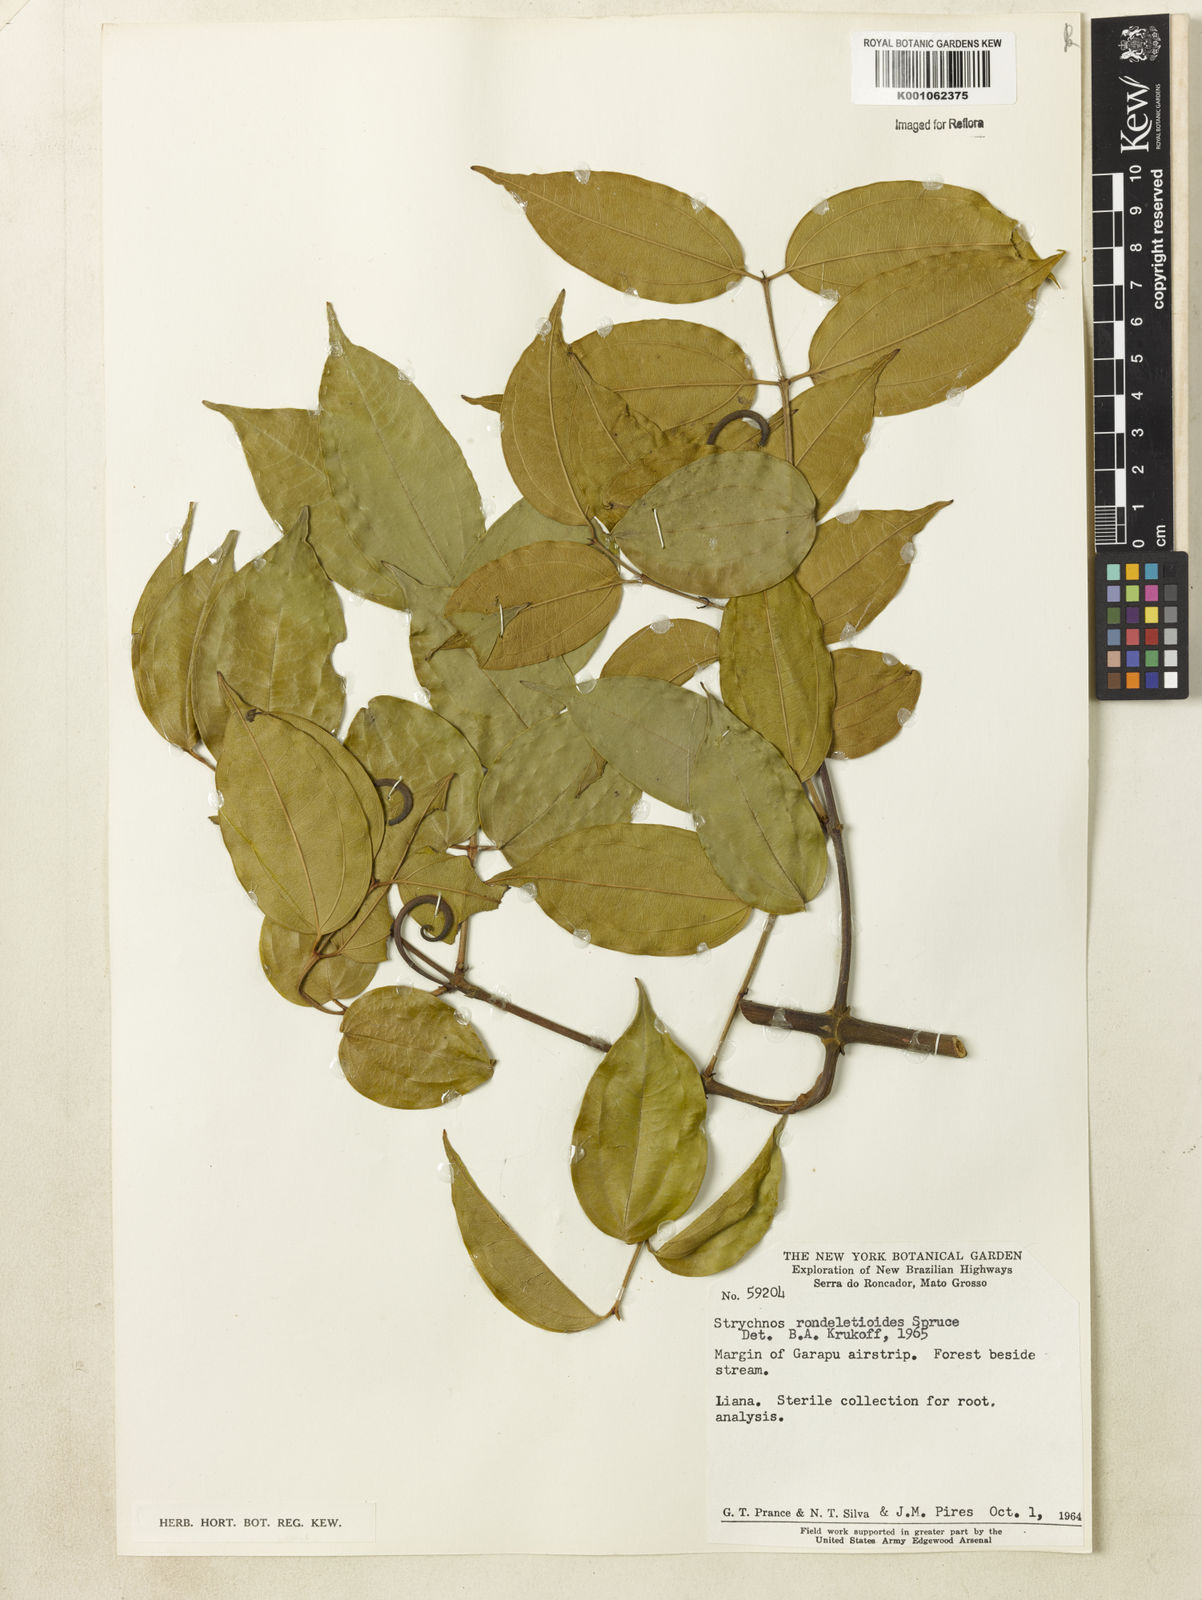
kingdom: Plantae
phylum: Tracheophyta
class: Magnoliopsida
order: Gentianales
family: Loganiaceae
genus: Strychnos
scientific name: Strychnos rondeletioides
